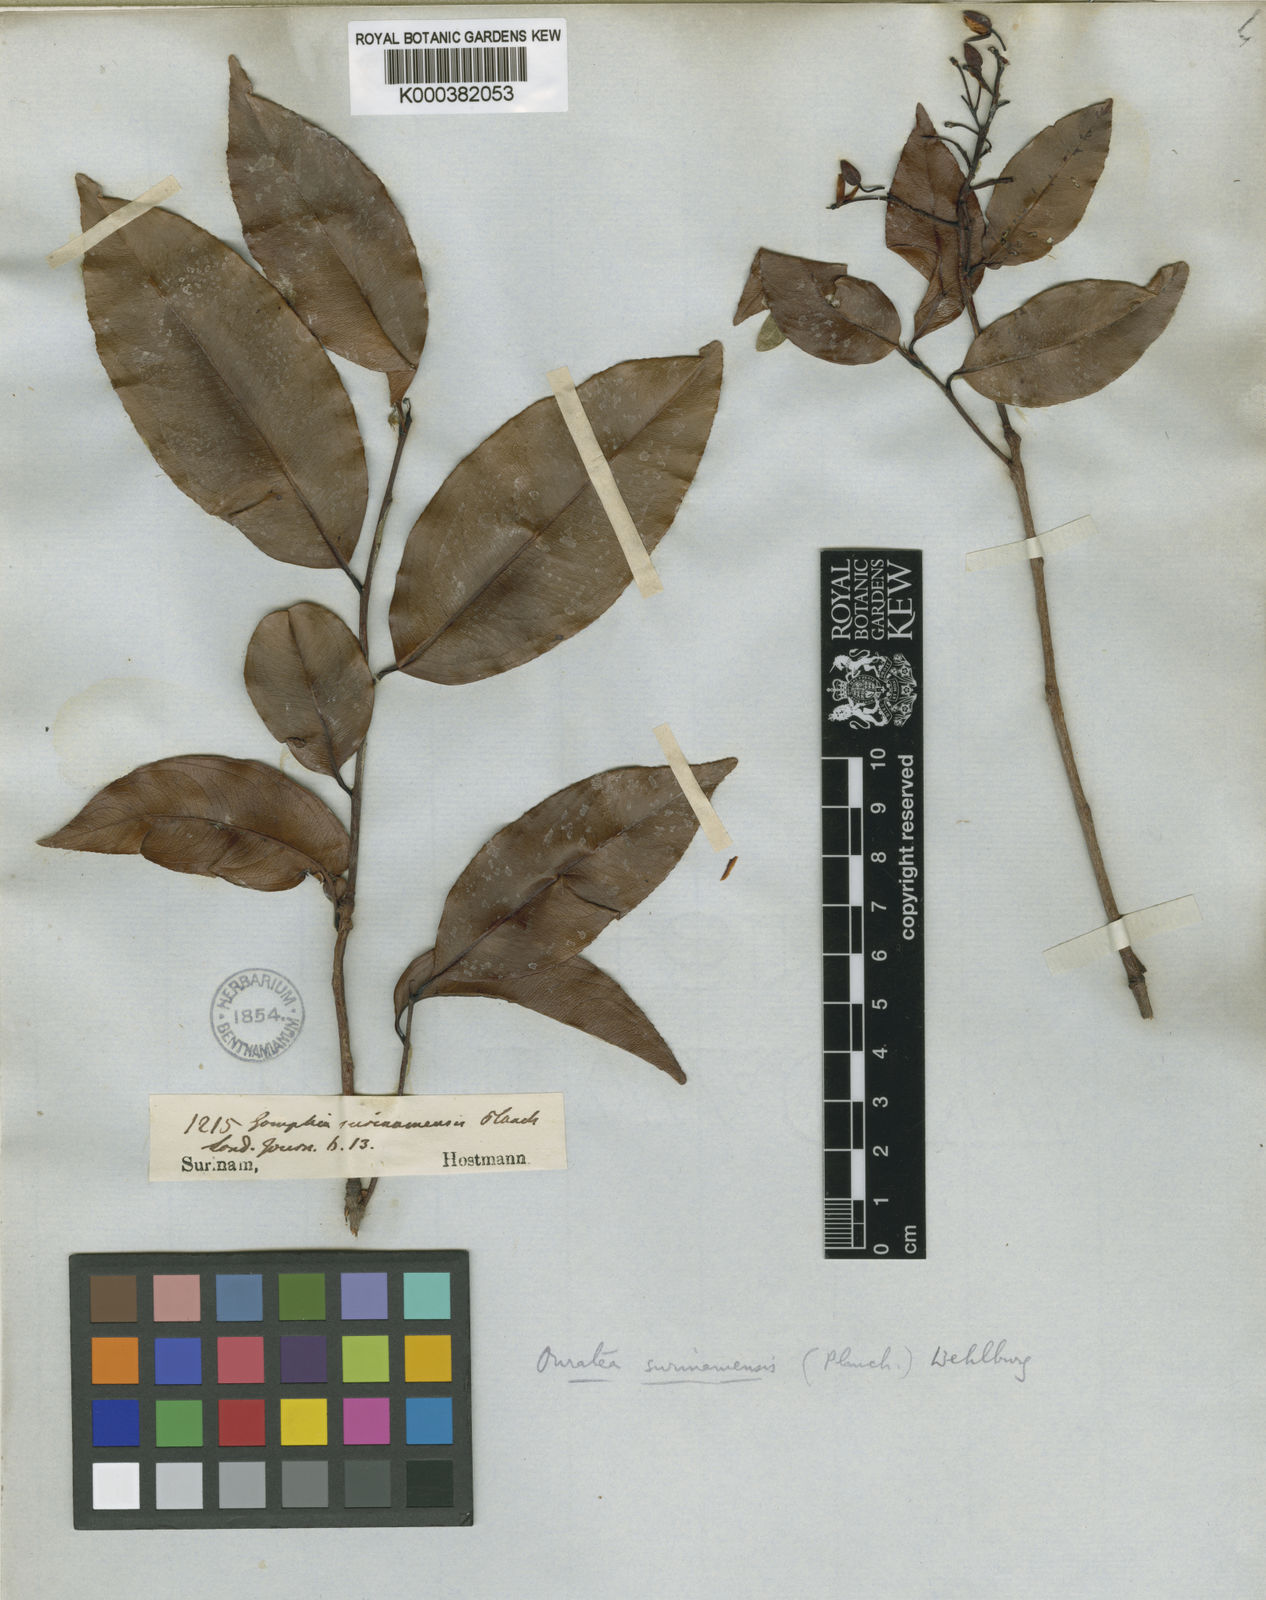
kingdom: Plantae
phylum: Tracheophyta
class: Magnoliopsida
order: Malpighiales
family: Ochnaceae
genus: Ouratea
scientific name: Ouratea cardiosperma
